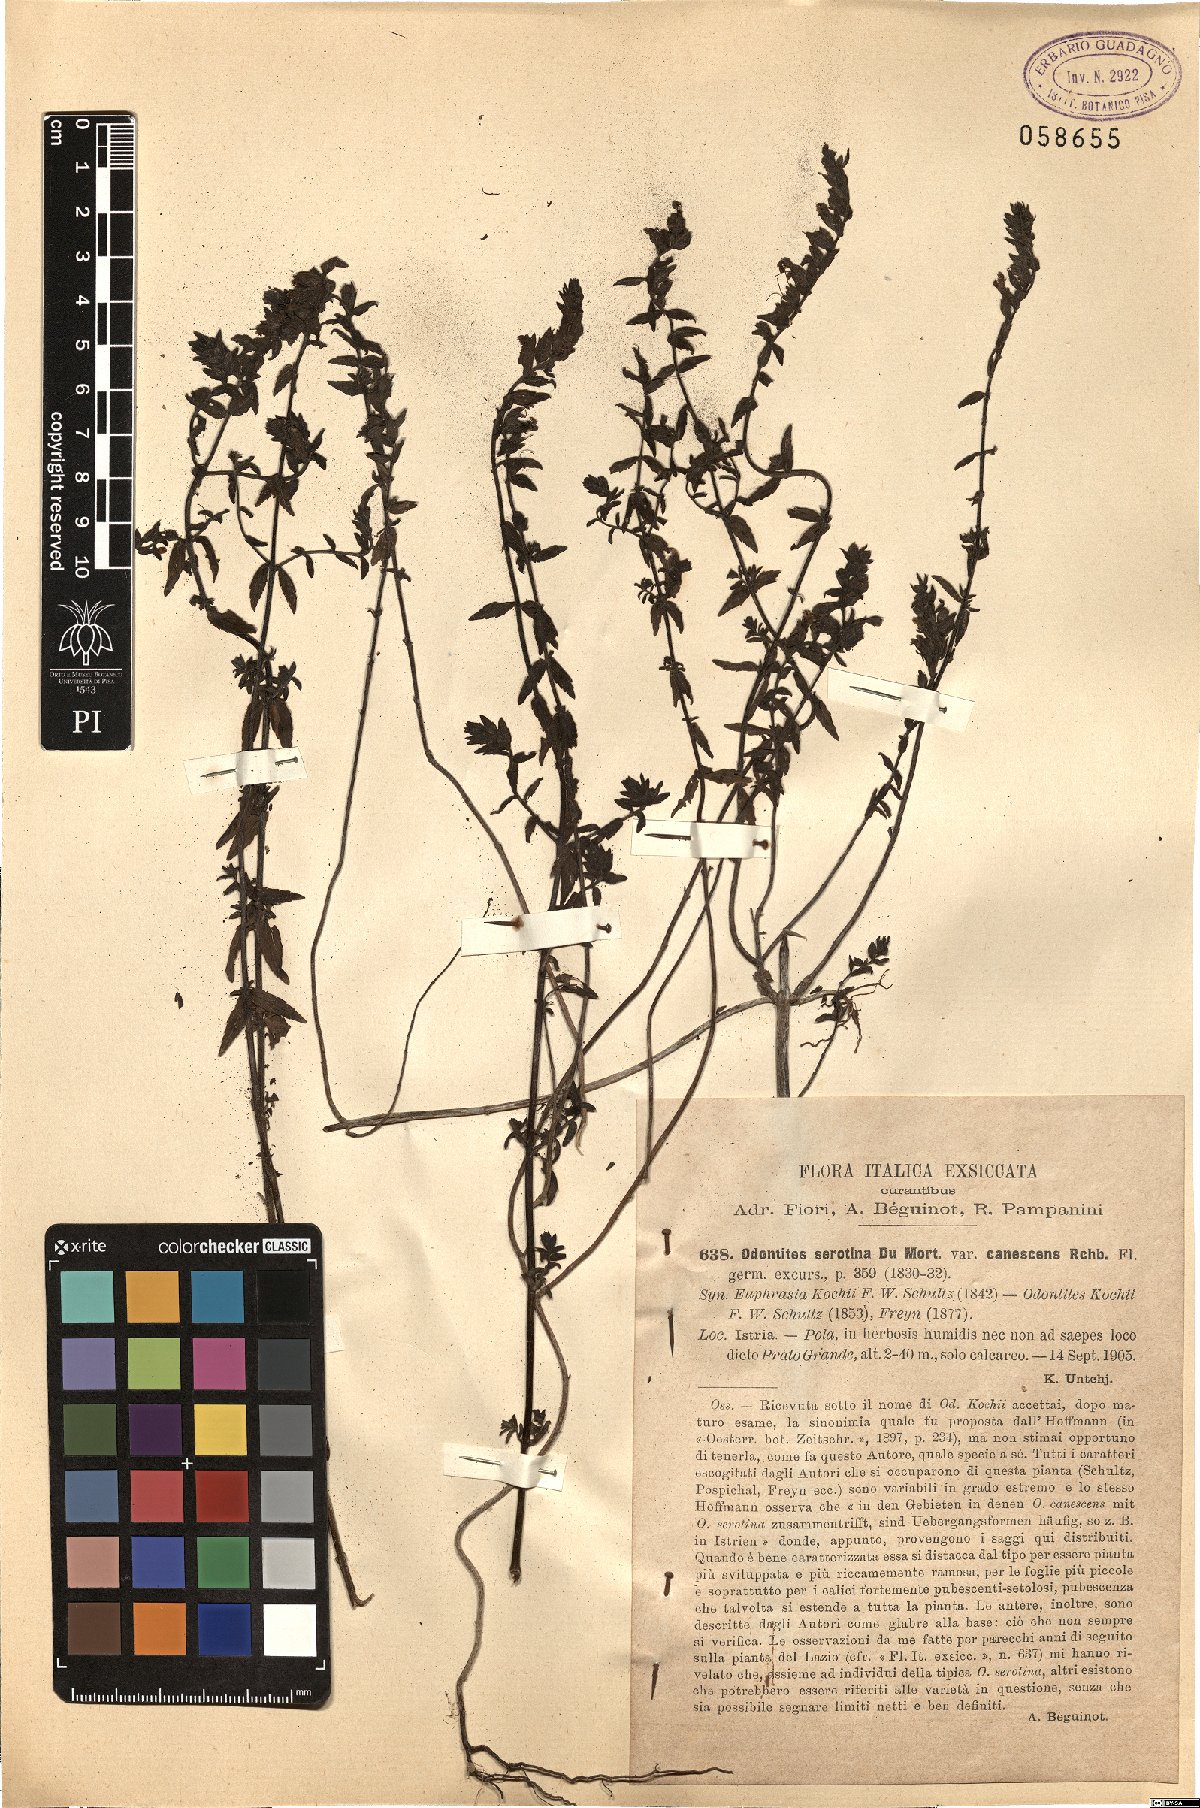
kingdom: Plantae
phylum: Tracheophyta
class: Magnoliopsida
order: Lamiales
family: Orobanchaceae
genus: Odontites
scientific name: Odontites vernus
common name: Red bartsia
